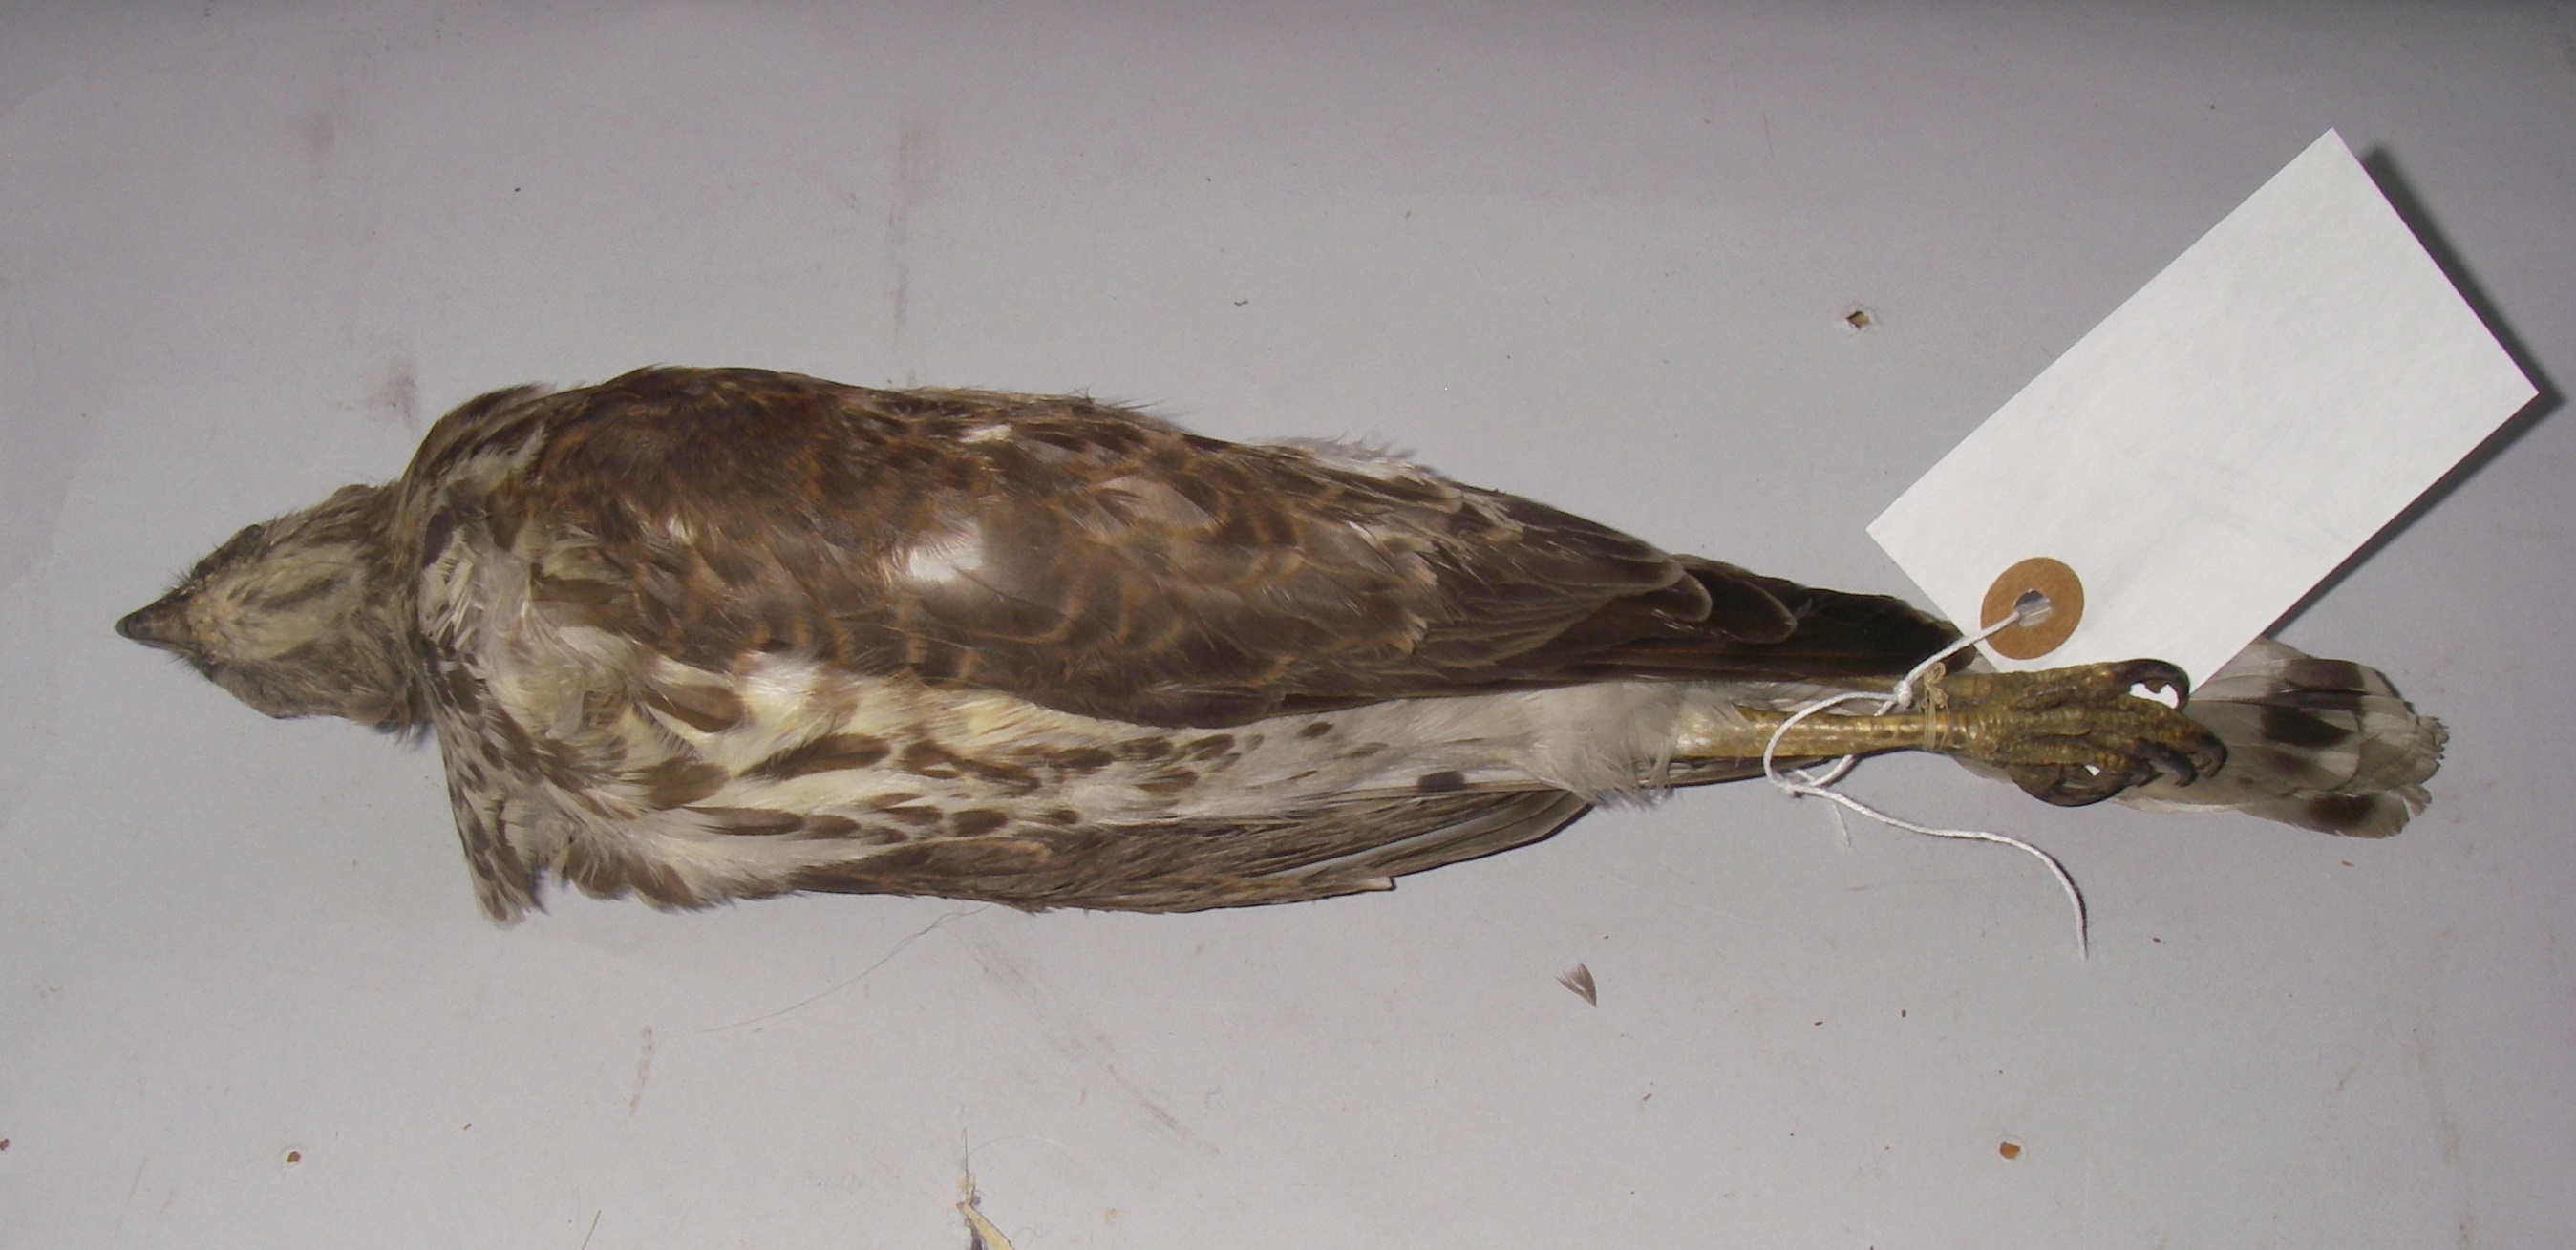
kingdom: Animalia
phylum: Chordata
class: Aves
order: Accipitriformes
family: Accipitridae
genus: Accipiter
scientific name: Accipiter nisus
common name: Eurasian sparrowhawk
